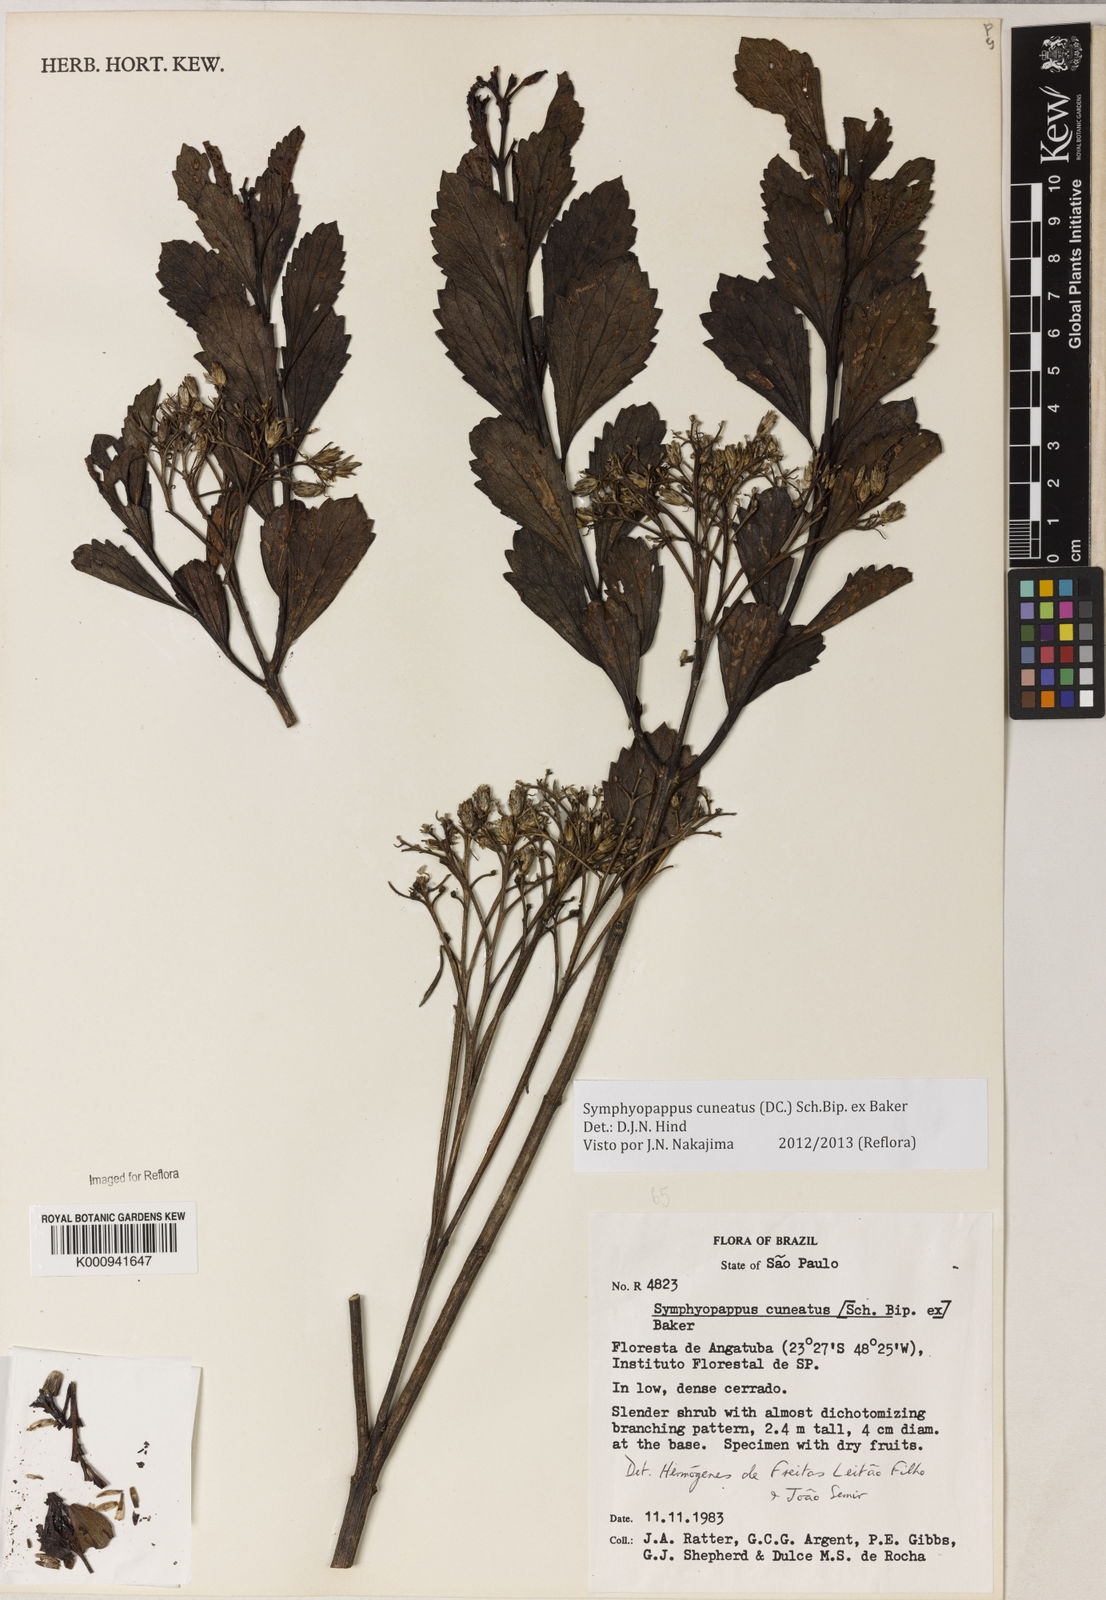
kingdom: Plantae
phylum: Tracheophyta
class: Magnoliopsida
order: Asterales
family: Asteraceae
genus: Symphyopappus
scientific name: Symphyopappus cuneatus
